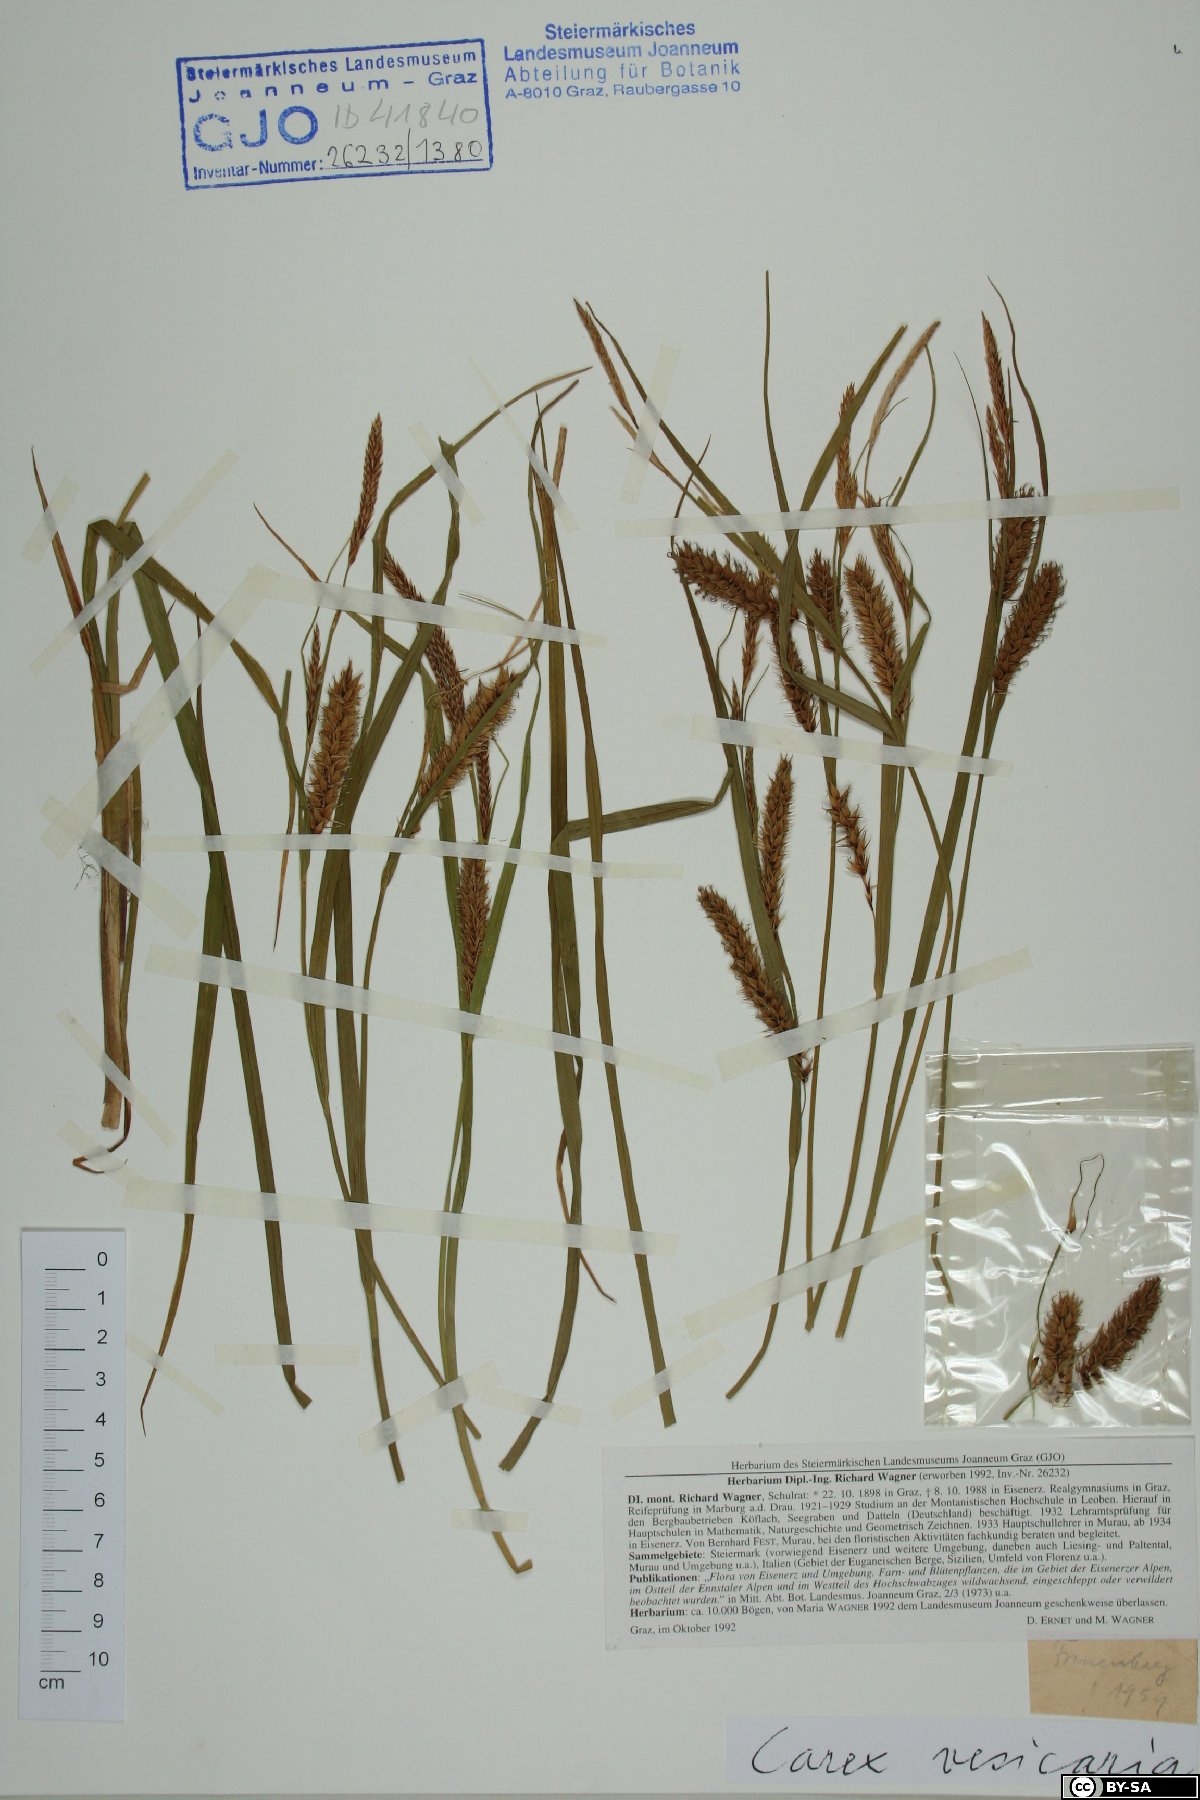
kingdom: Plantae
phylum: Tracheophyta
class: Liliopsida
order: Poales
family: Cyperaceae
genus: Carex
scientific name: Carex vesicaria
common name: Bladder-sedge
